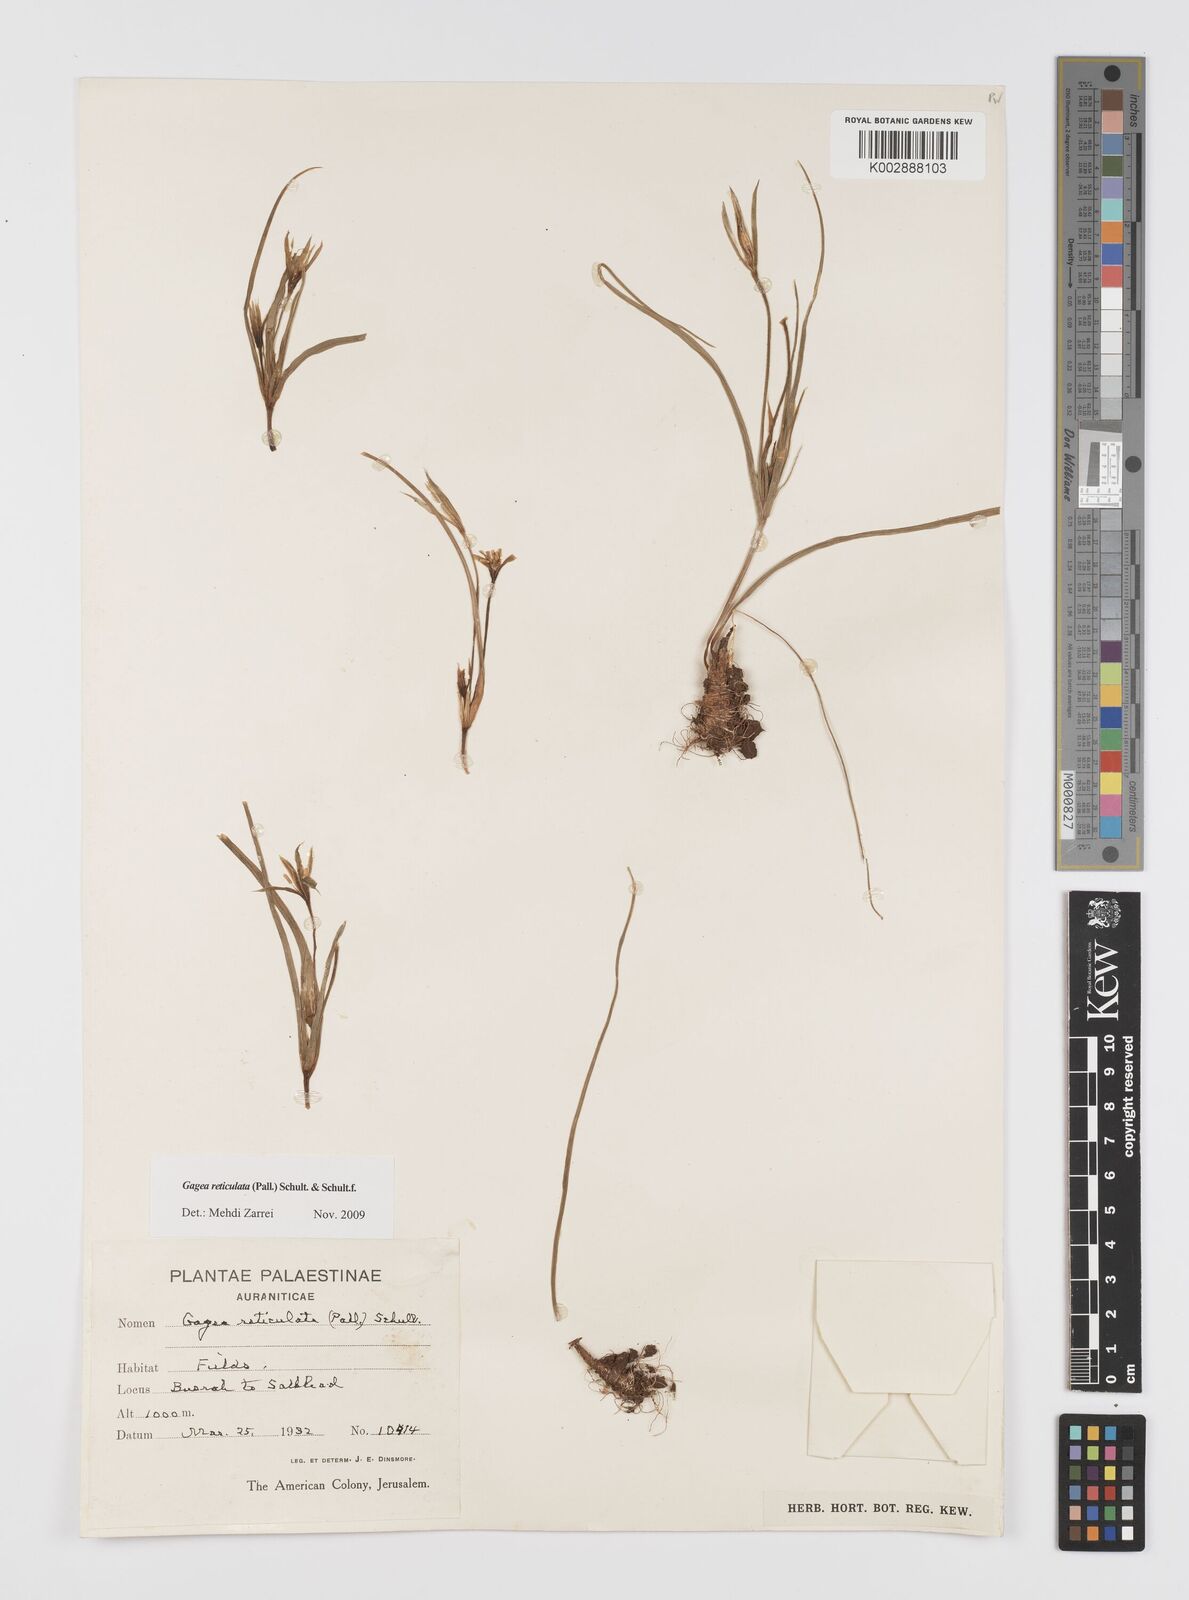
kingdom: Plantae
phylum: Tracheophyta
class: Liliopsida
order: Liliales
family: Liliaceae
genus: Gagea
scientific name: Gagea reticulata
